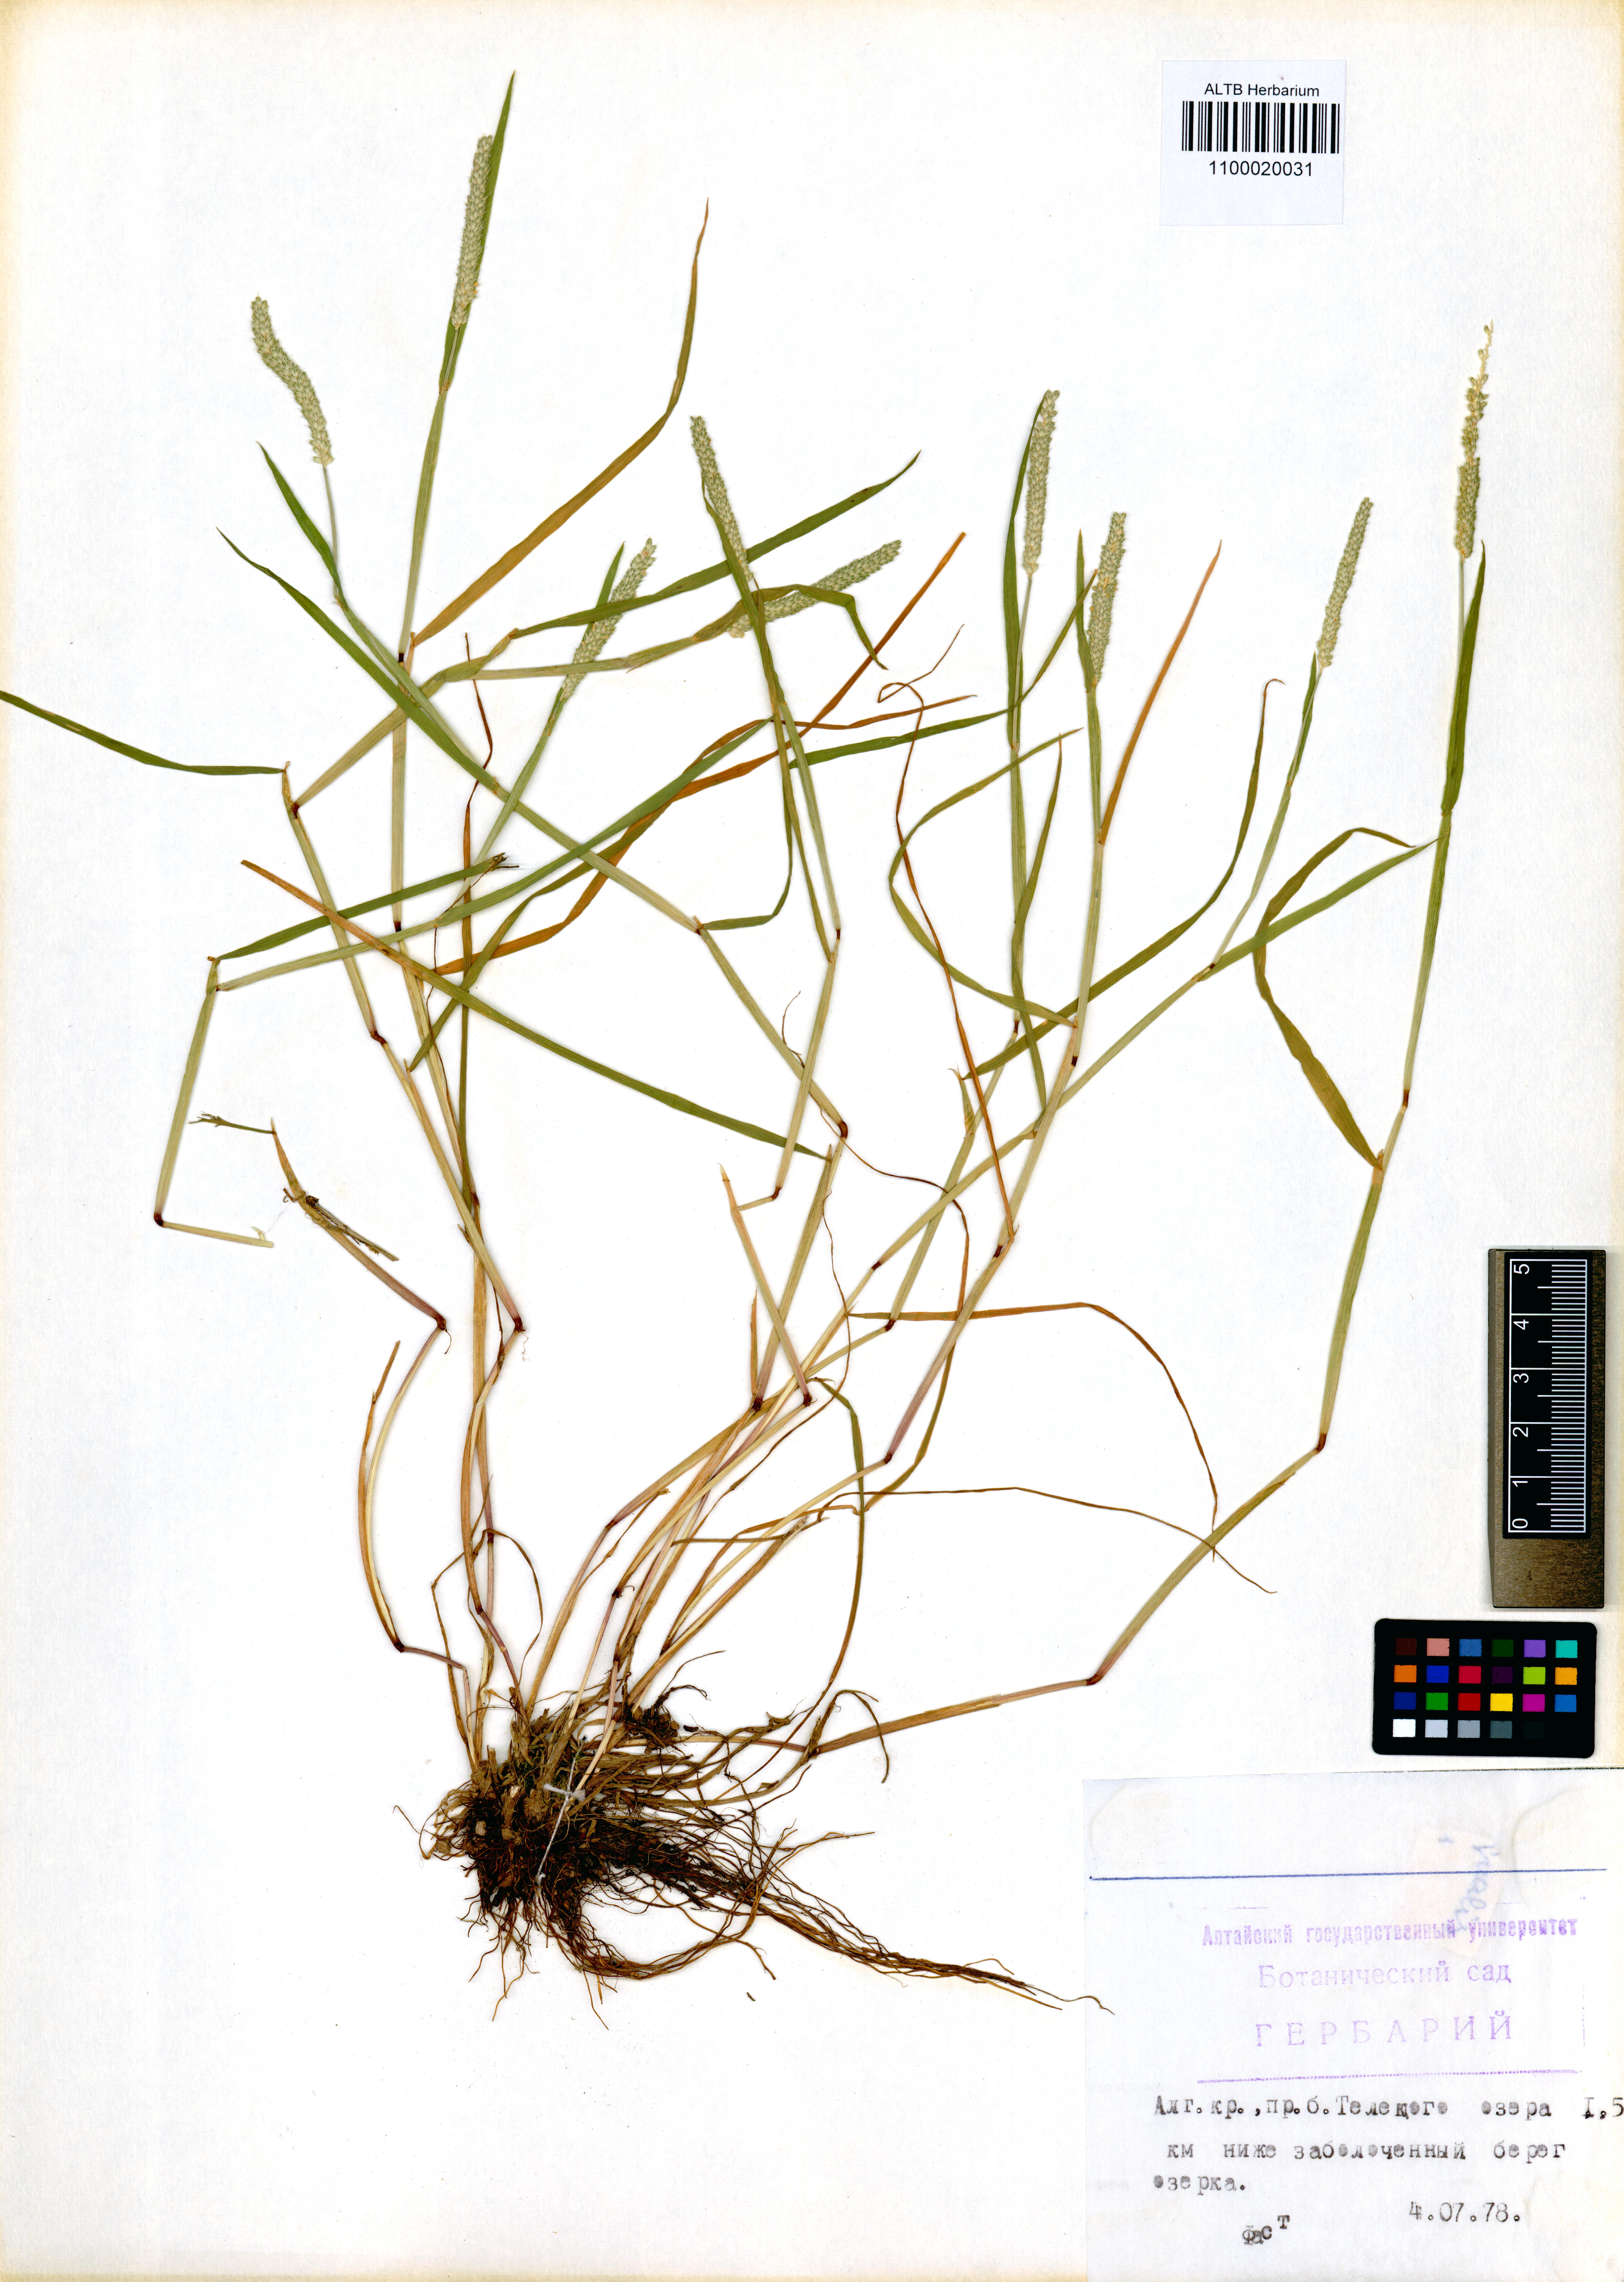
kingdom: Plantae
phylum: Tracheophyta
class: Liliopsida
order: Poales
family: Poaceae
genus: Alopecurus
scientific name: Alopecurus aequalis
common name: Orange foxtail
